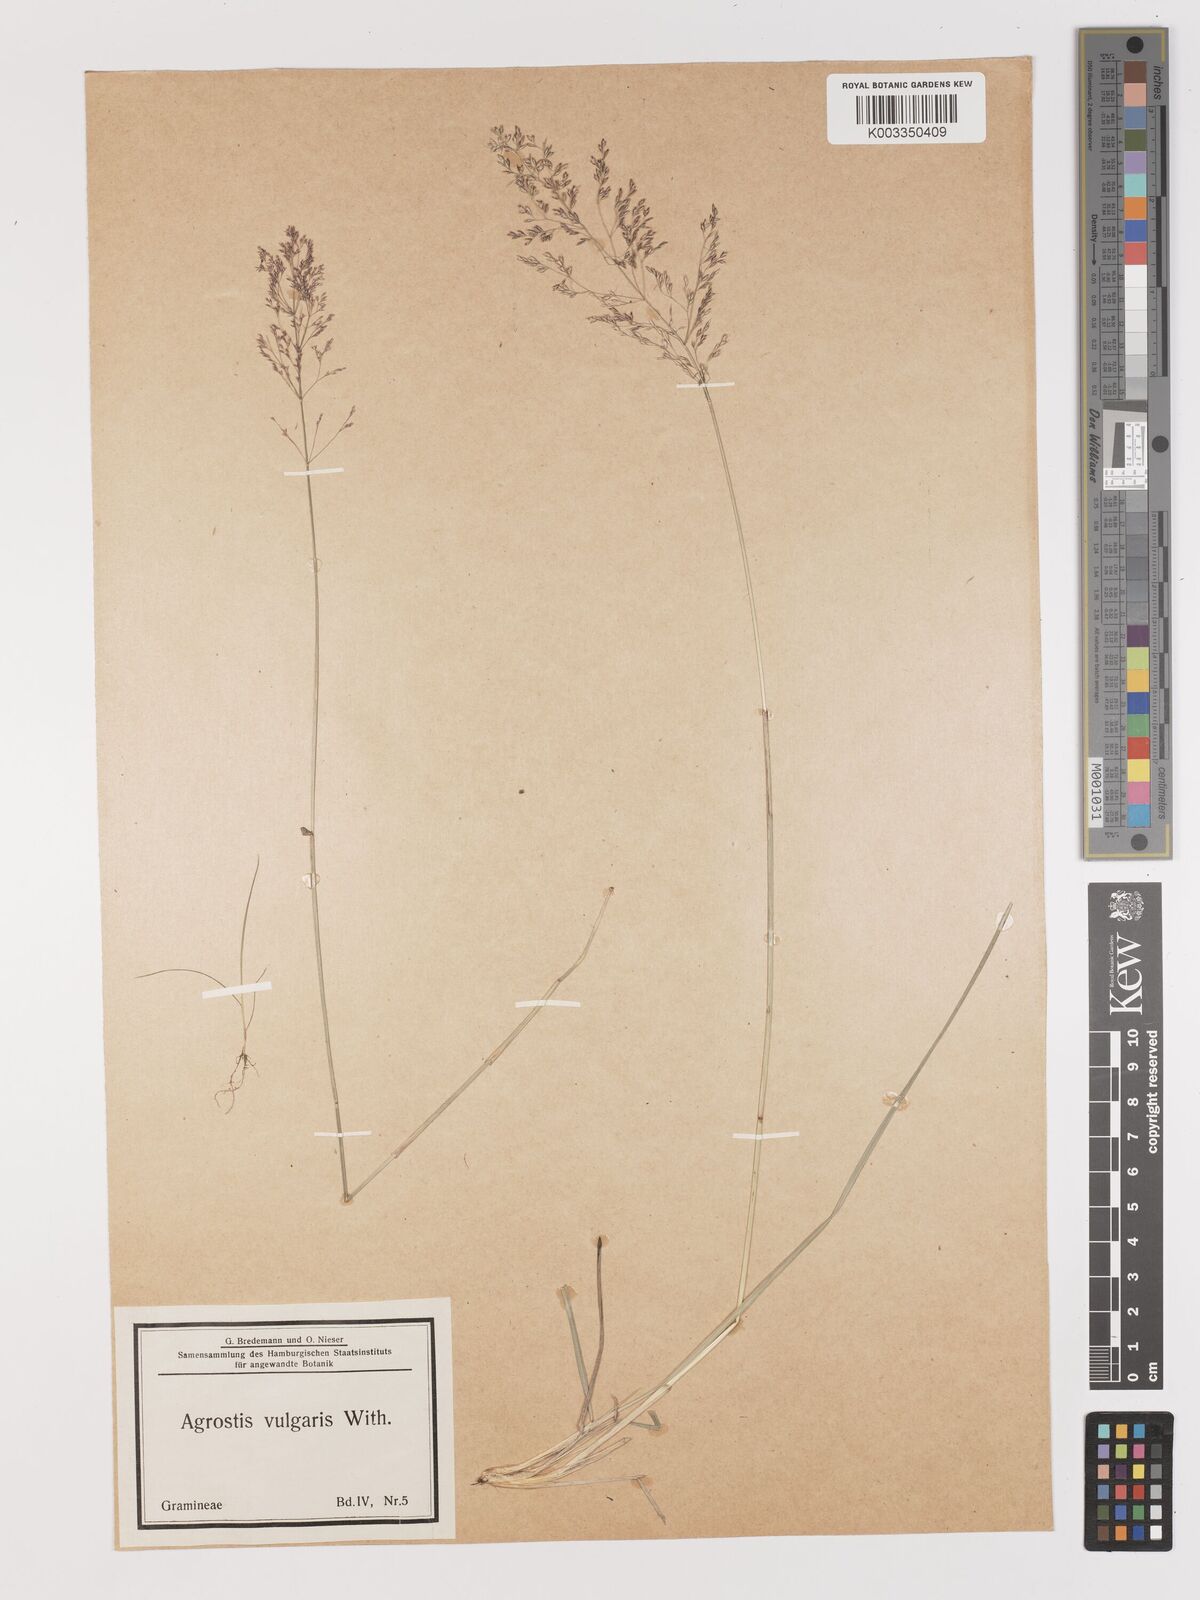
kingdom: Plantae
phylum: Tracheophyta
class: Liliopsida
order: Poales
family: Poaceae
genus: Agrostis
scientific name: Agrostis capillaris
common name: Colonial bentgrass
